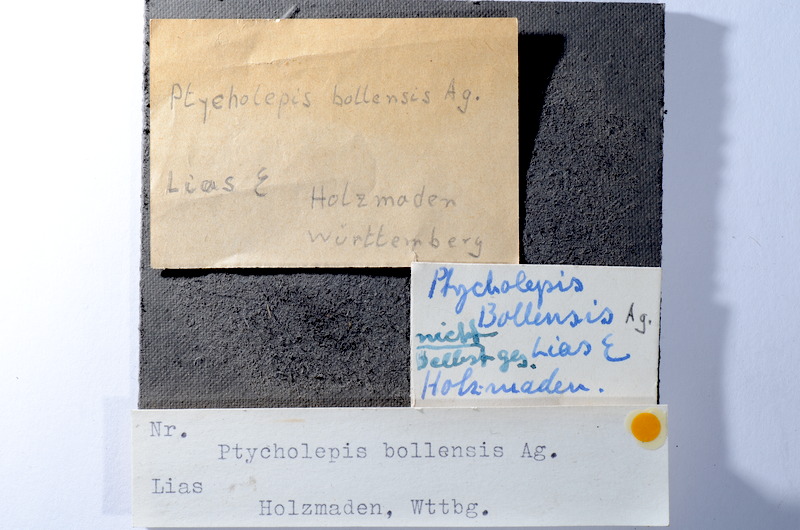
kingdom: Animalia
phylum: Chordata
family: Ptycholepididae
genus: Ptycholepis
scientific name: Ptycholepis bollensis
